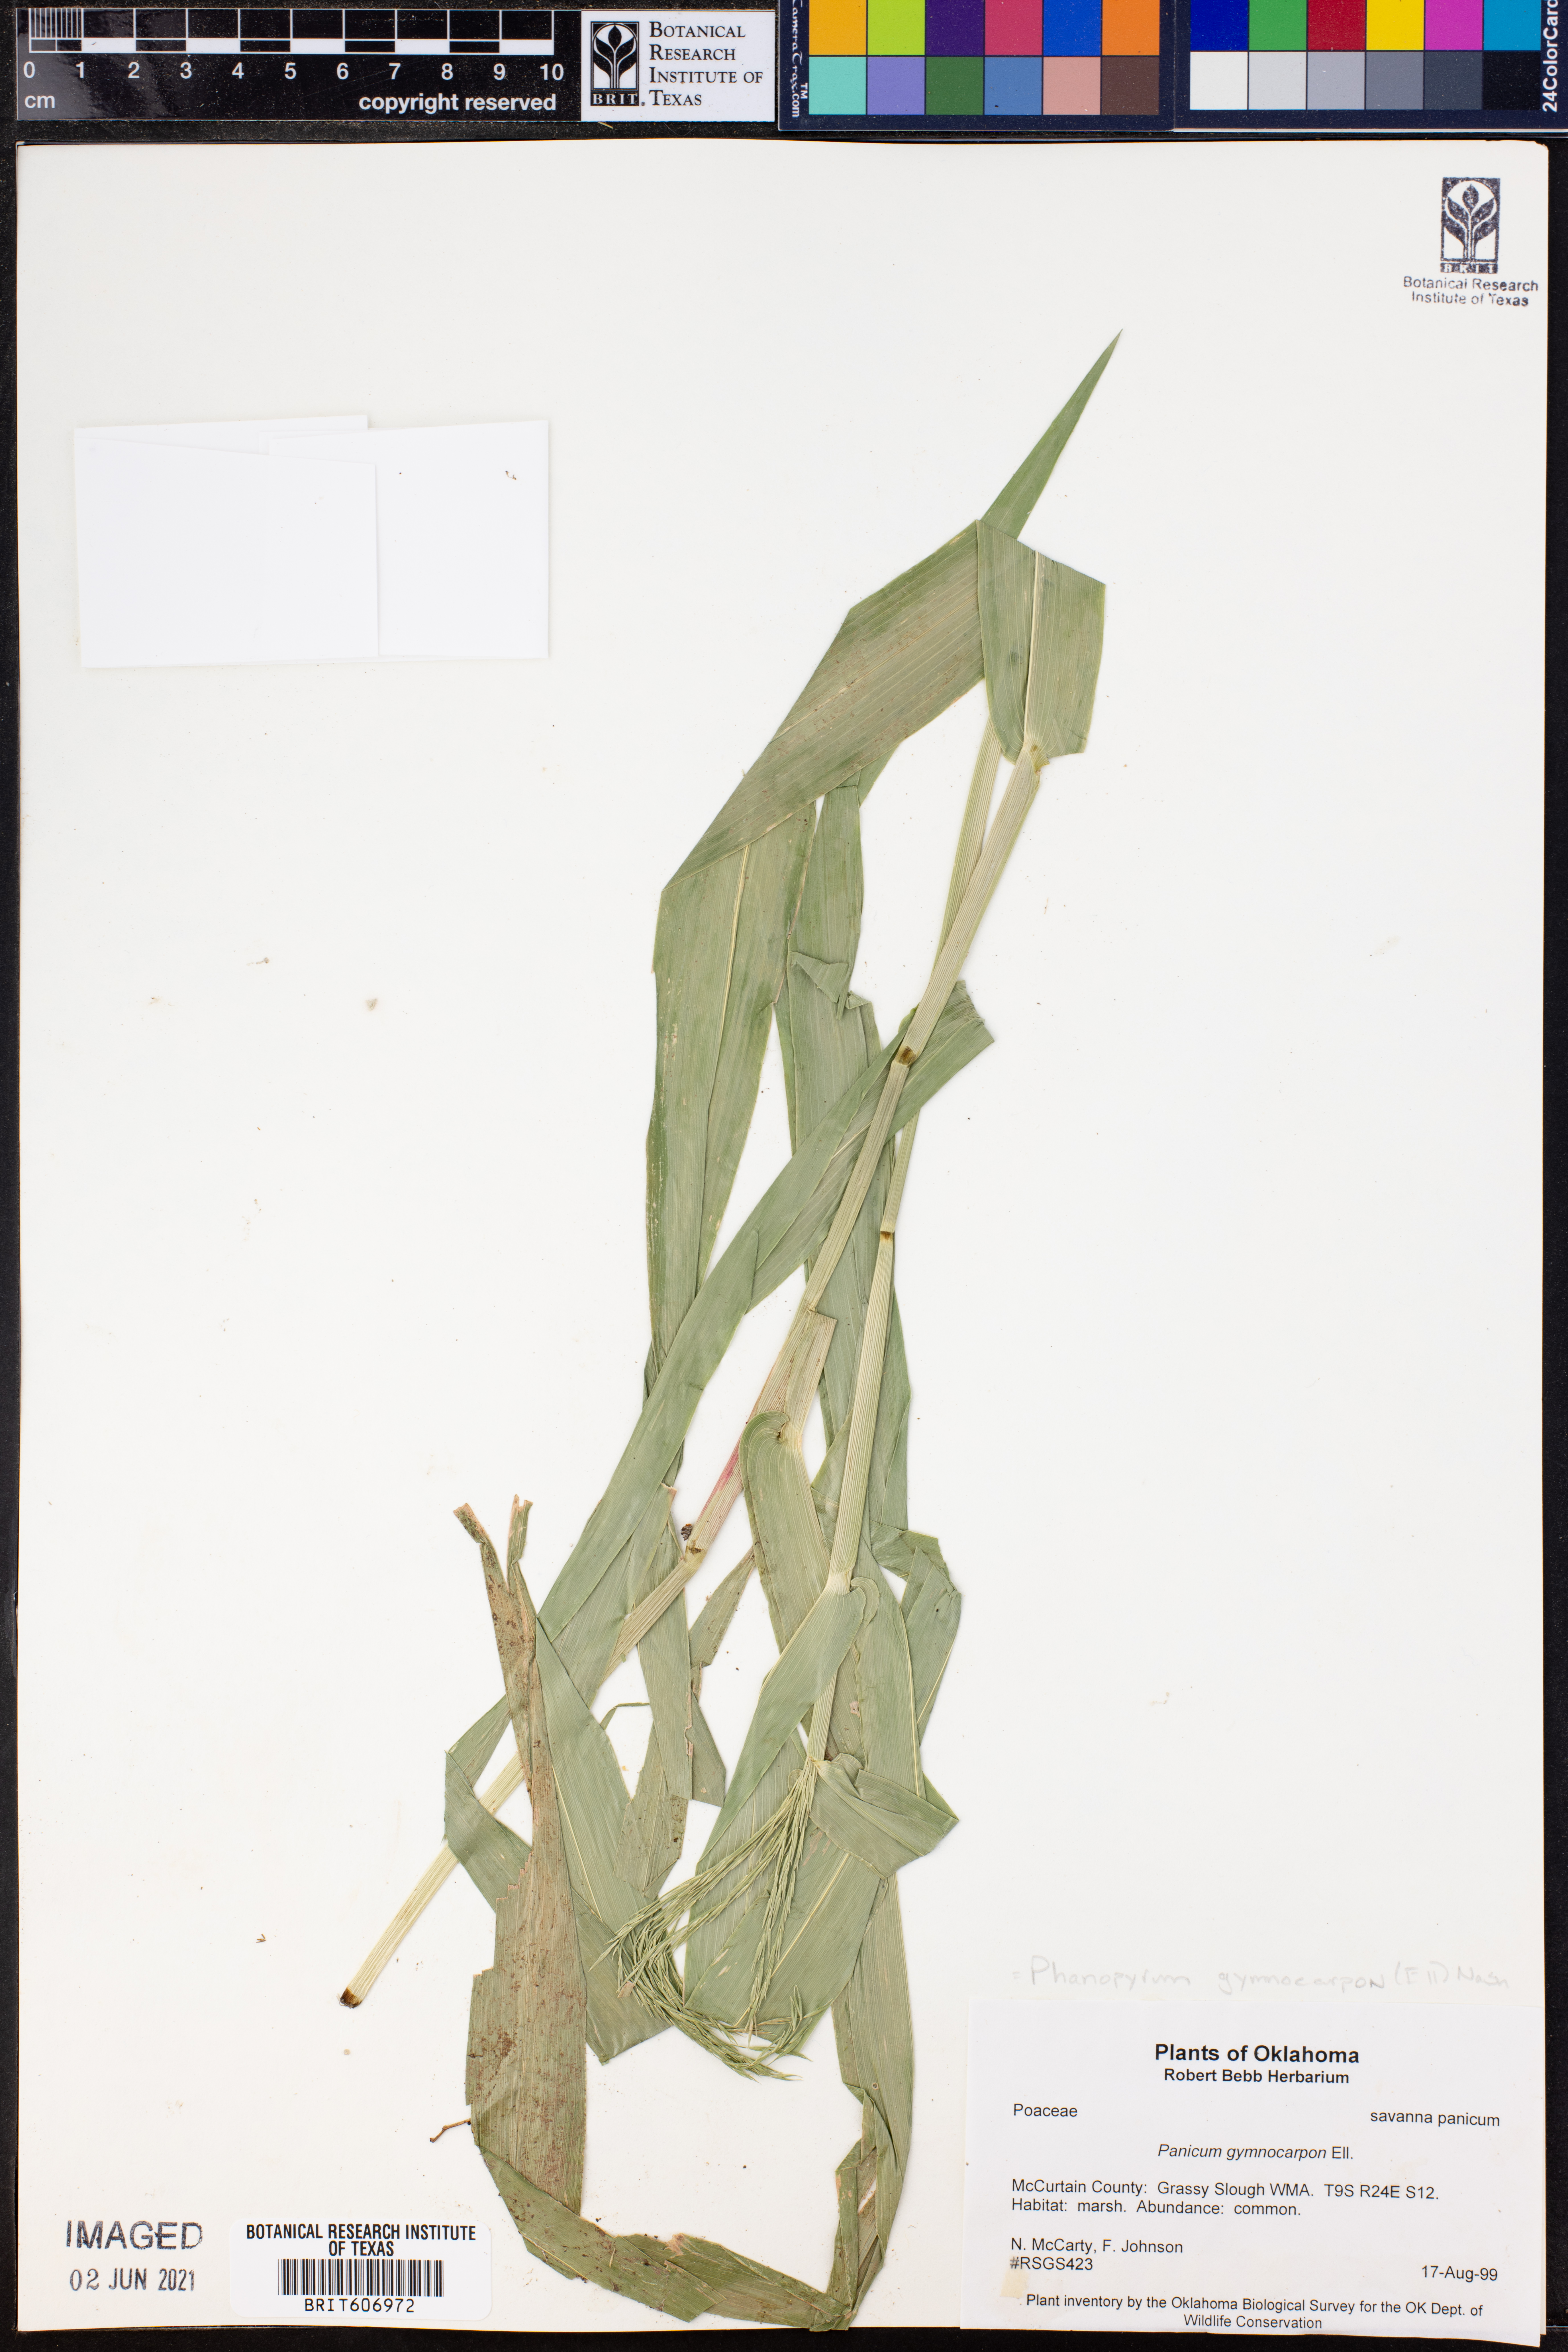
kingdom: Plantae
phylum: Tracheophyta
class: Liliopsida
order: Poales
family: Poaceae
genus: Panicum
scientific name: Panicum gymnocarpon
